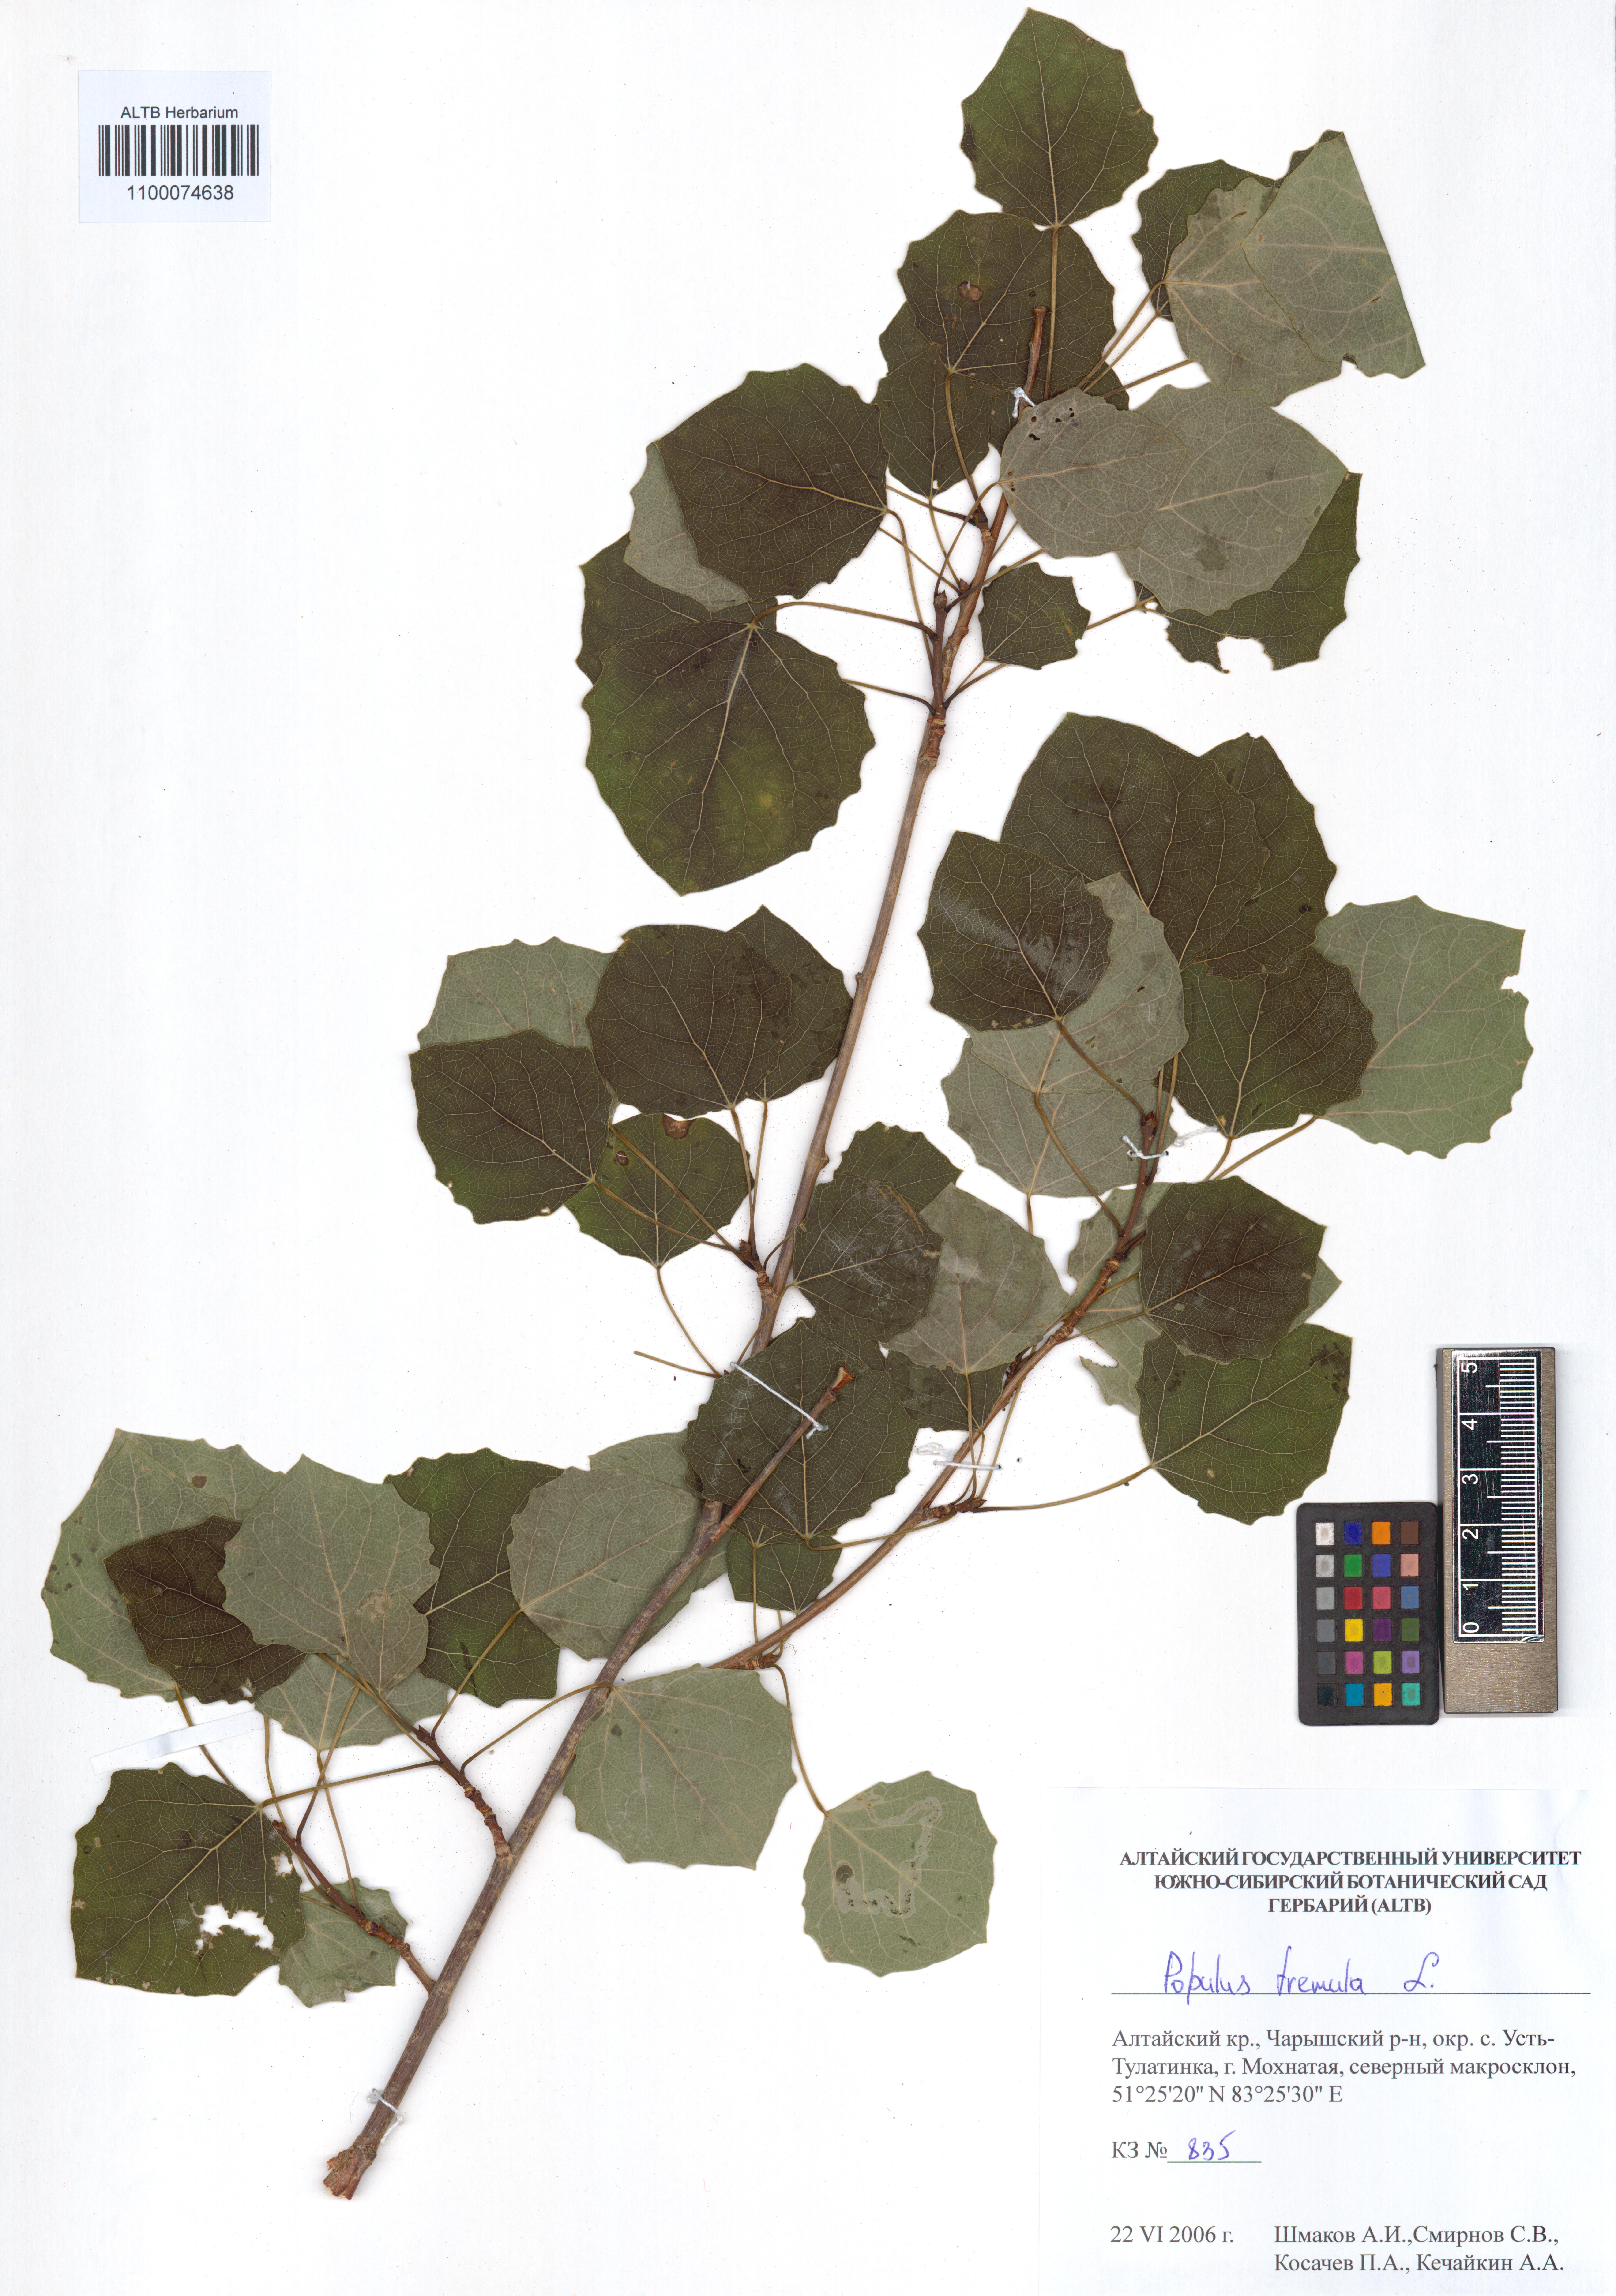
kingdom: Plantae
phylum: Tracheophyta
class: Magnoliopsida
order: Malpighiales
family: Salicaceae
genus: Populus
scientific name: Populus tremula
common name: European aspen
